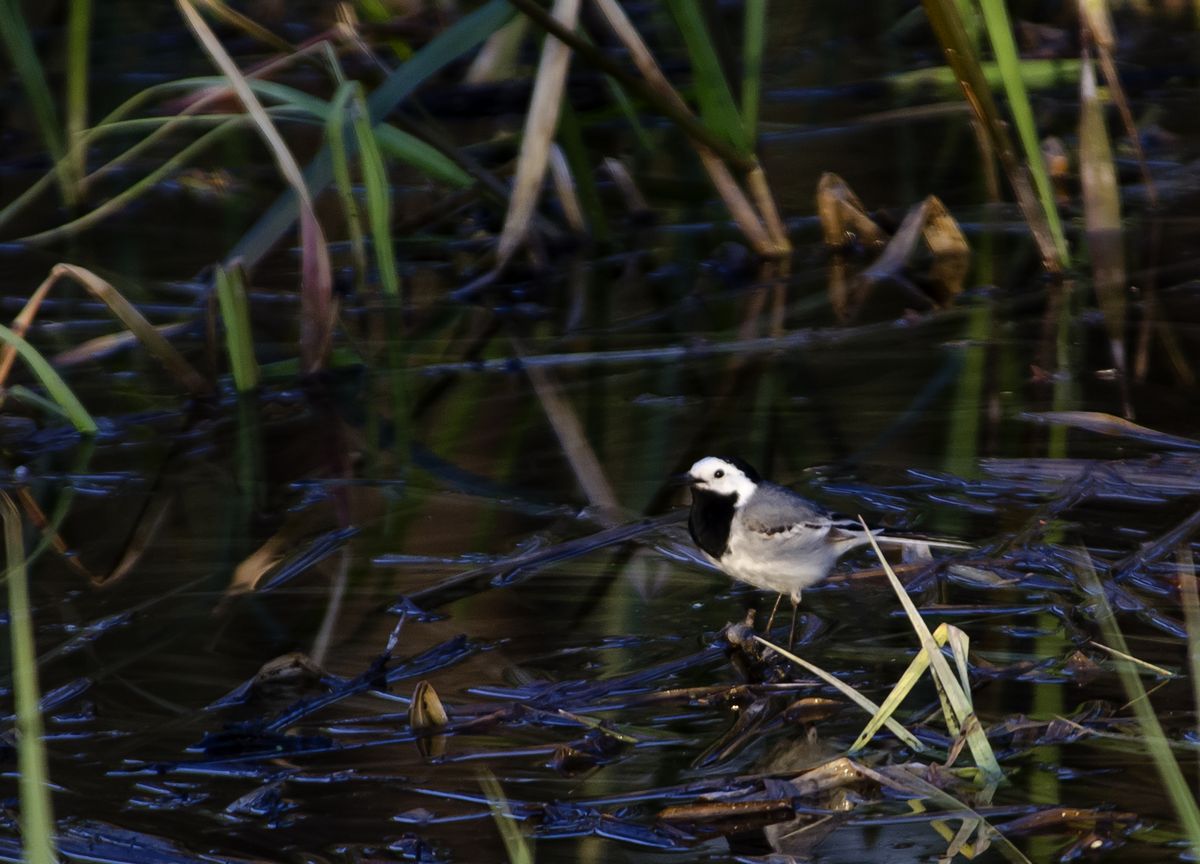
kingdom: Animalia
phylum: Chordata
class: Aves
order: Passeriformes
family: Motacillidae
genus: Motacilla
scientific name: Motacilla alba
